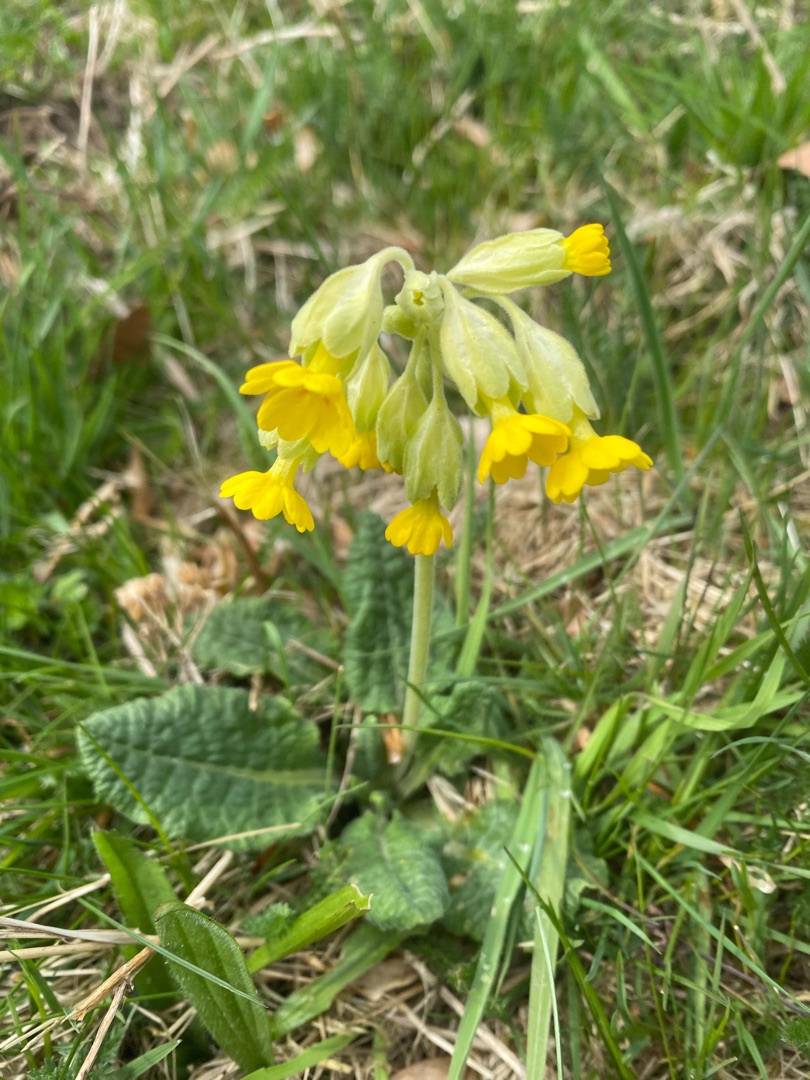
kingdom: Plantae
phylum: Tracheophyta
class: Magnoliopsida
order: Ericales
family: Primulaceae
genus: Primula
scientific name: Primula veris
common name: Hulkravet kodriver
